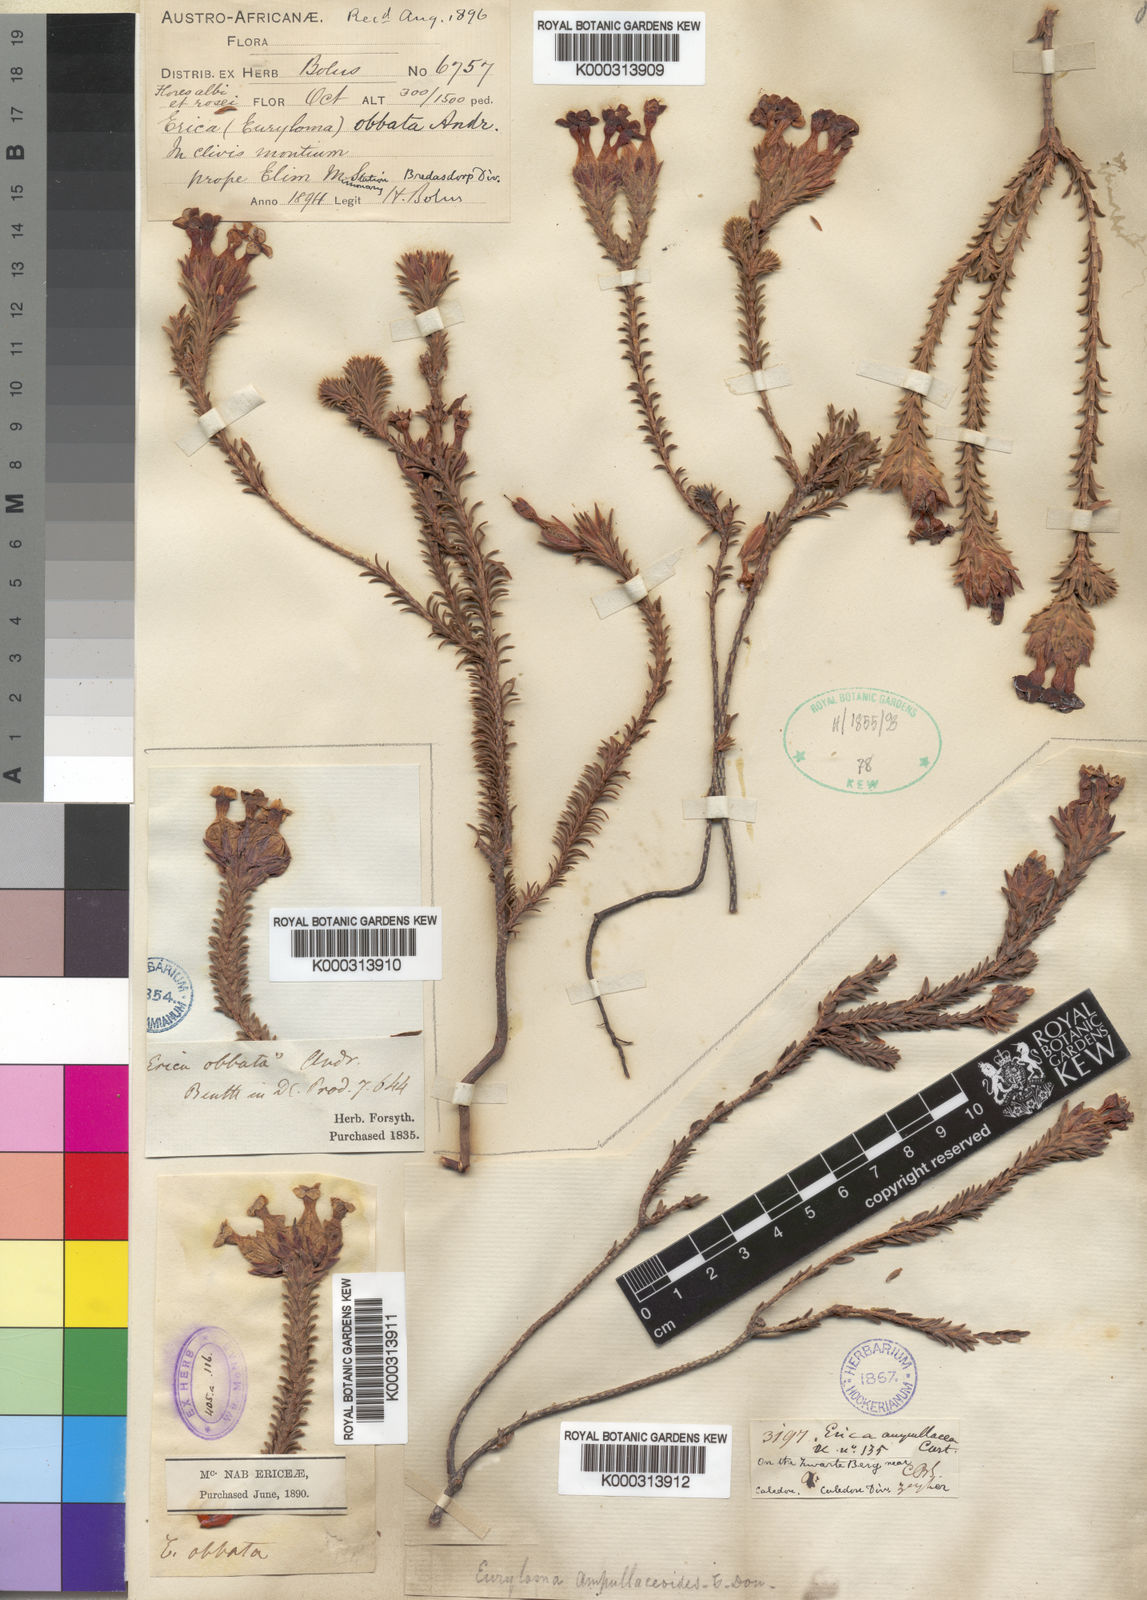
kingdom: Plantae
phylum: Tracheophyta
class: Magnoliopsida
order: Ericales
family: Ericaceae
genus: Erica
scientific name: Erica
